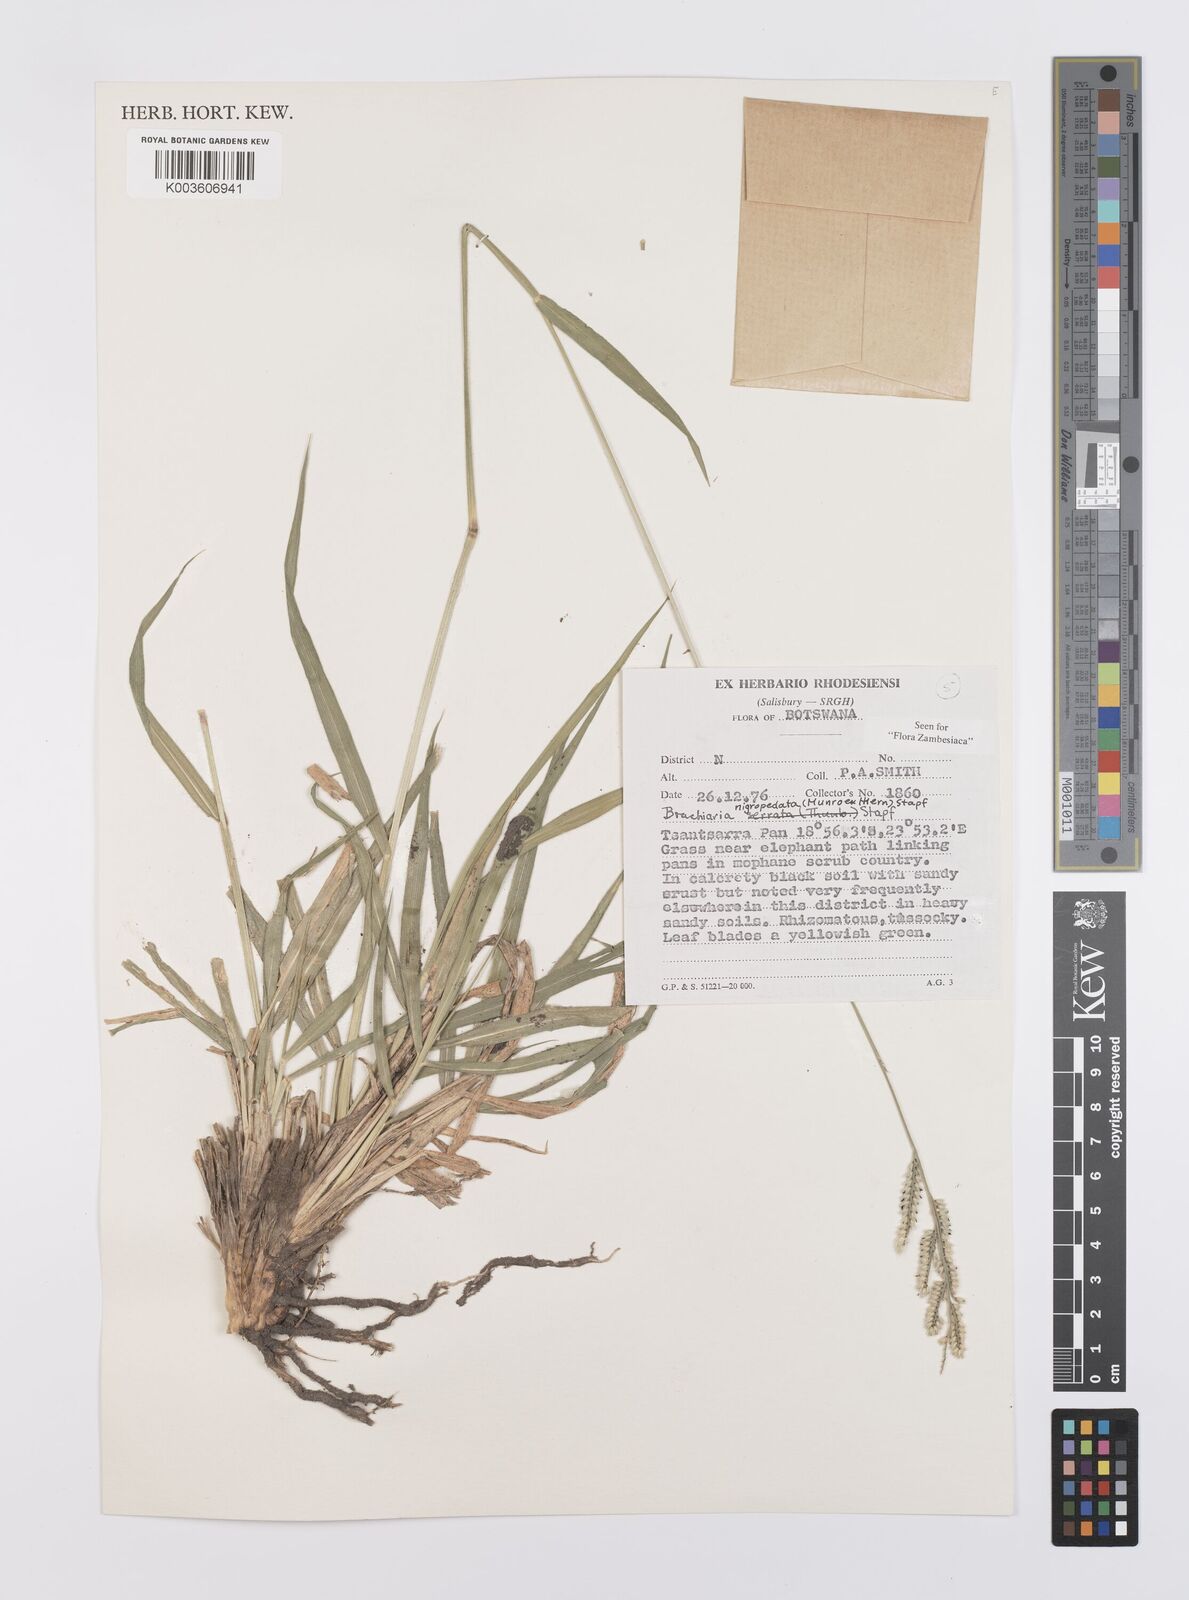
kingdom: Plantae
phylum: Tracheophyta
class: Liliopsida
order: Poales
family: Poaceae
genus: Urochloa
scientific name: Urochloa nigropedata
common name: Spotted signal grass
